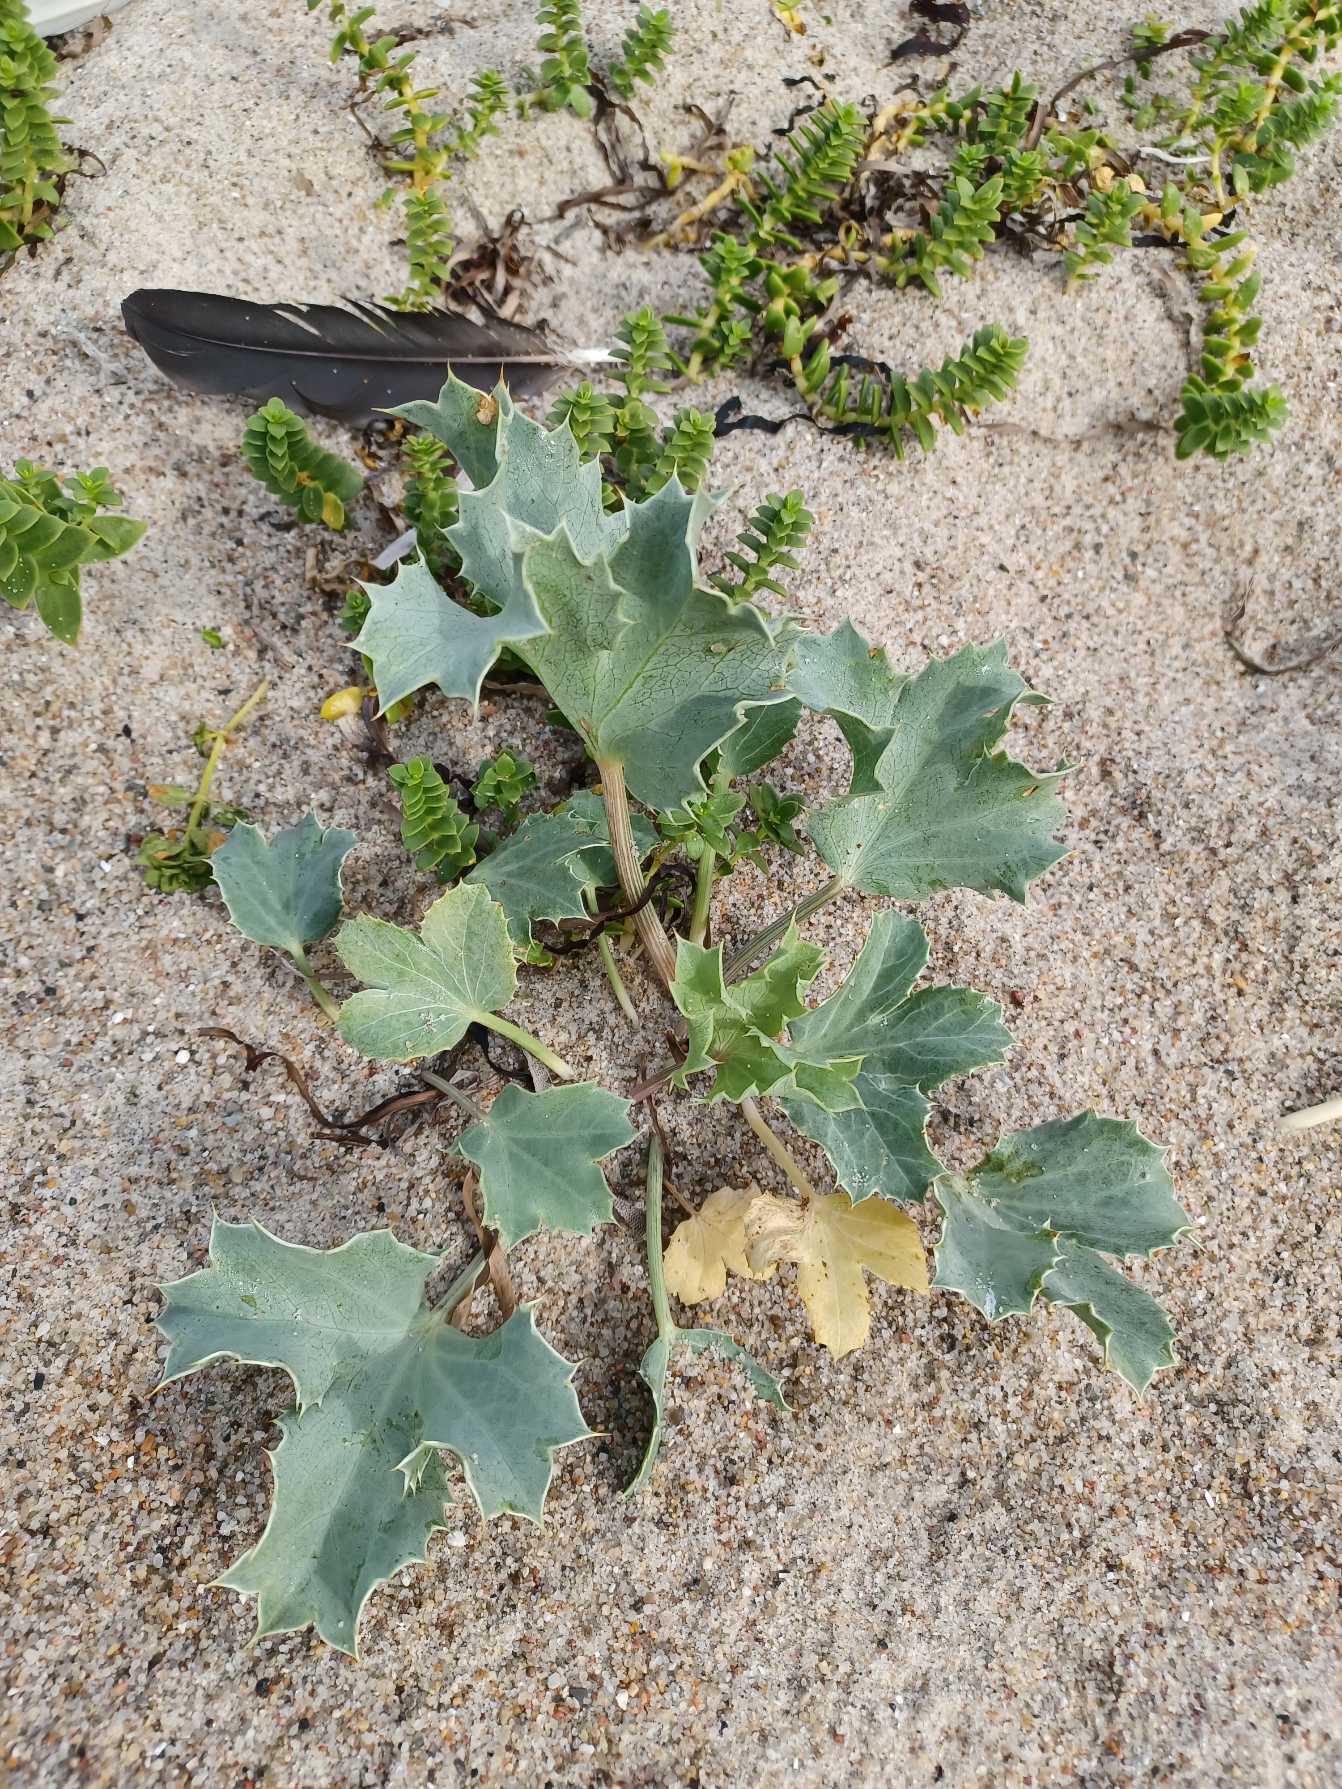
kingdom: Plantae
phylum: Tracheophyta
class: Magnoliopsida
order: Apiales
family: Apiaceae
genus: Eryngium
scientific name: Eryngium maritimum
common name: Strand-mandstro
